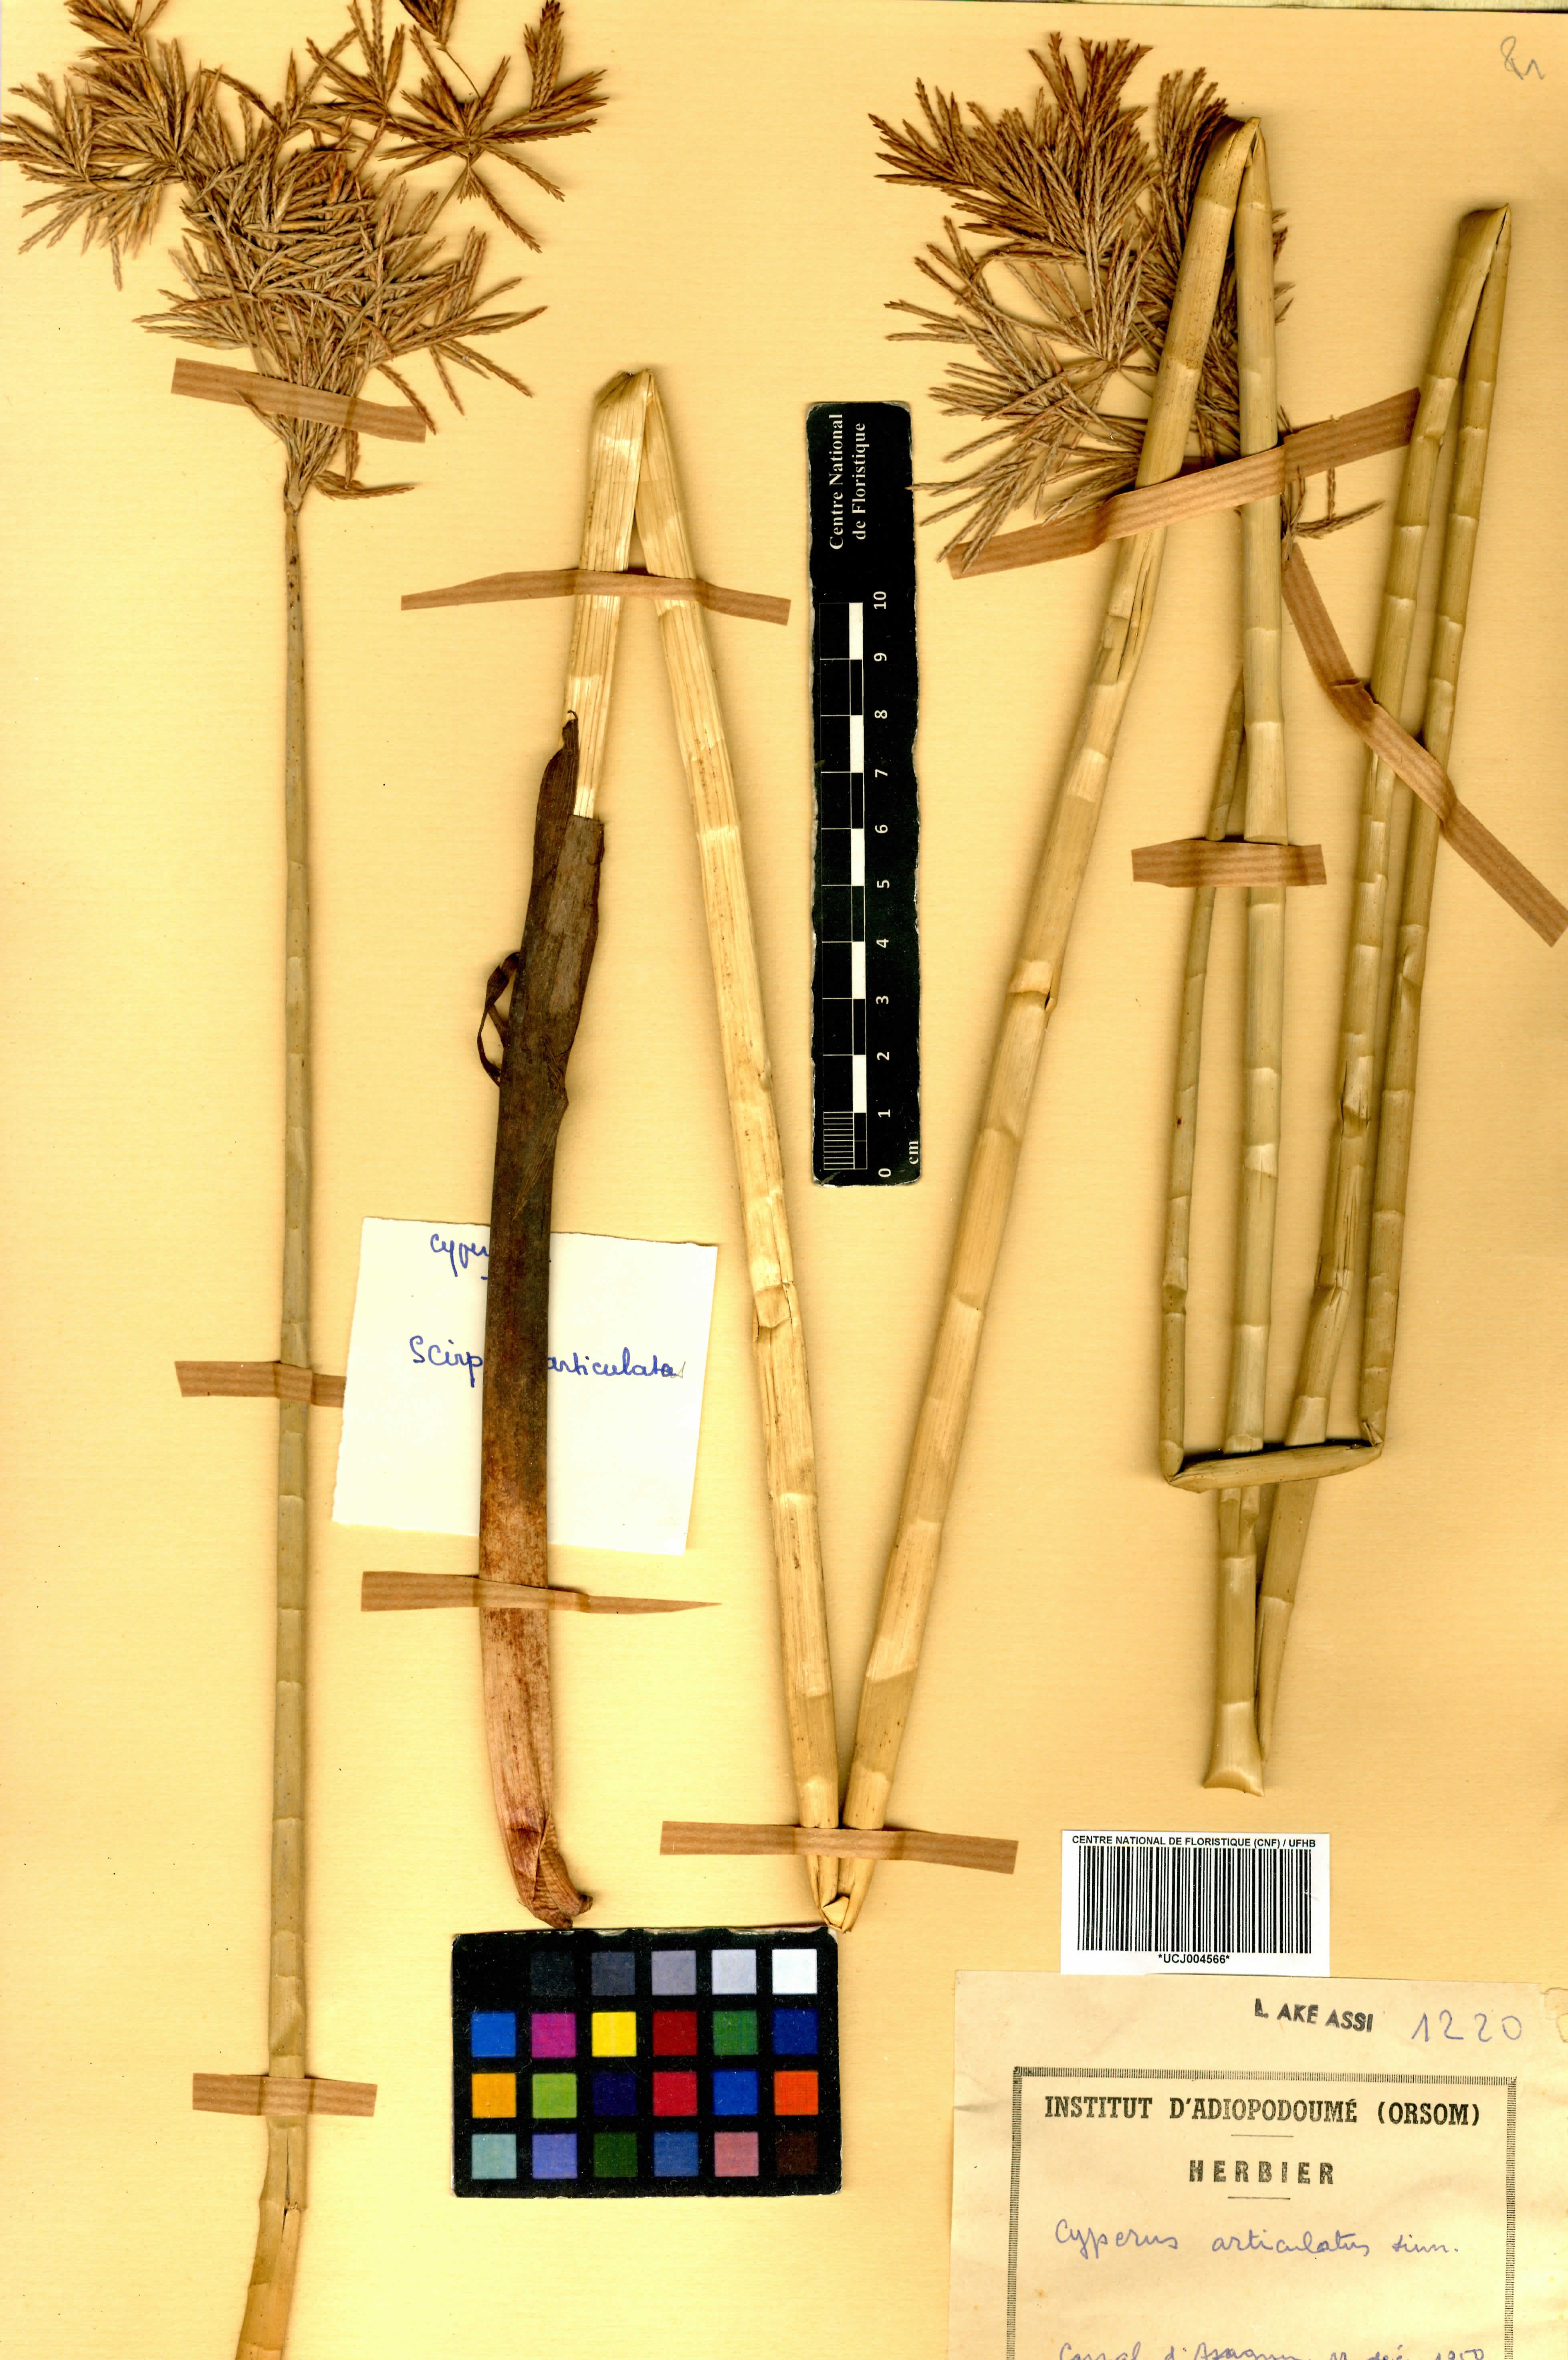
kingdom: Plantae
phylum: Tracheophyta
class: Liliopsida
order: Poales
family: Cyperaceae
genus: Cyperus
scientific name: Cyperus articulatus
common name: Jointed flatsedge
